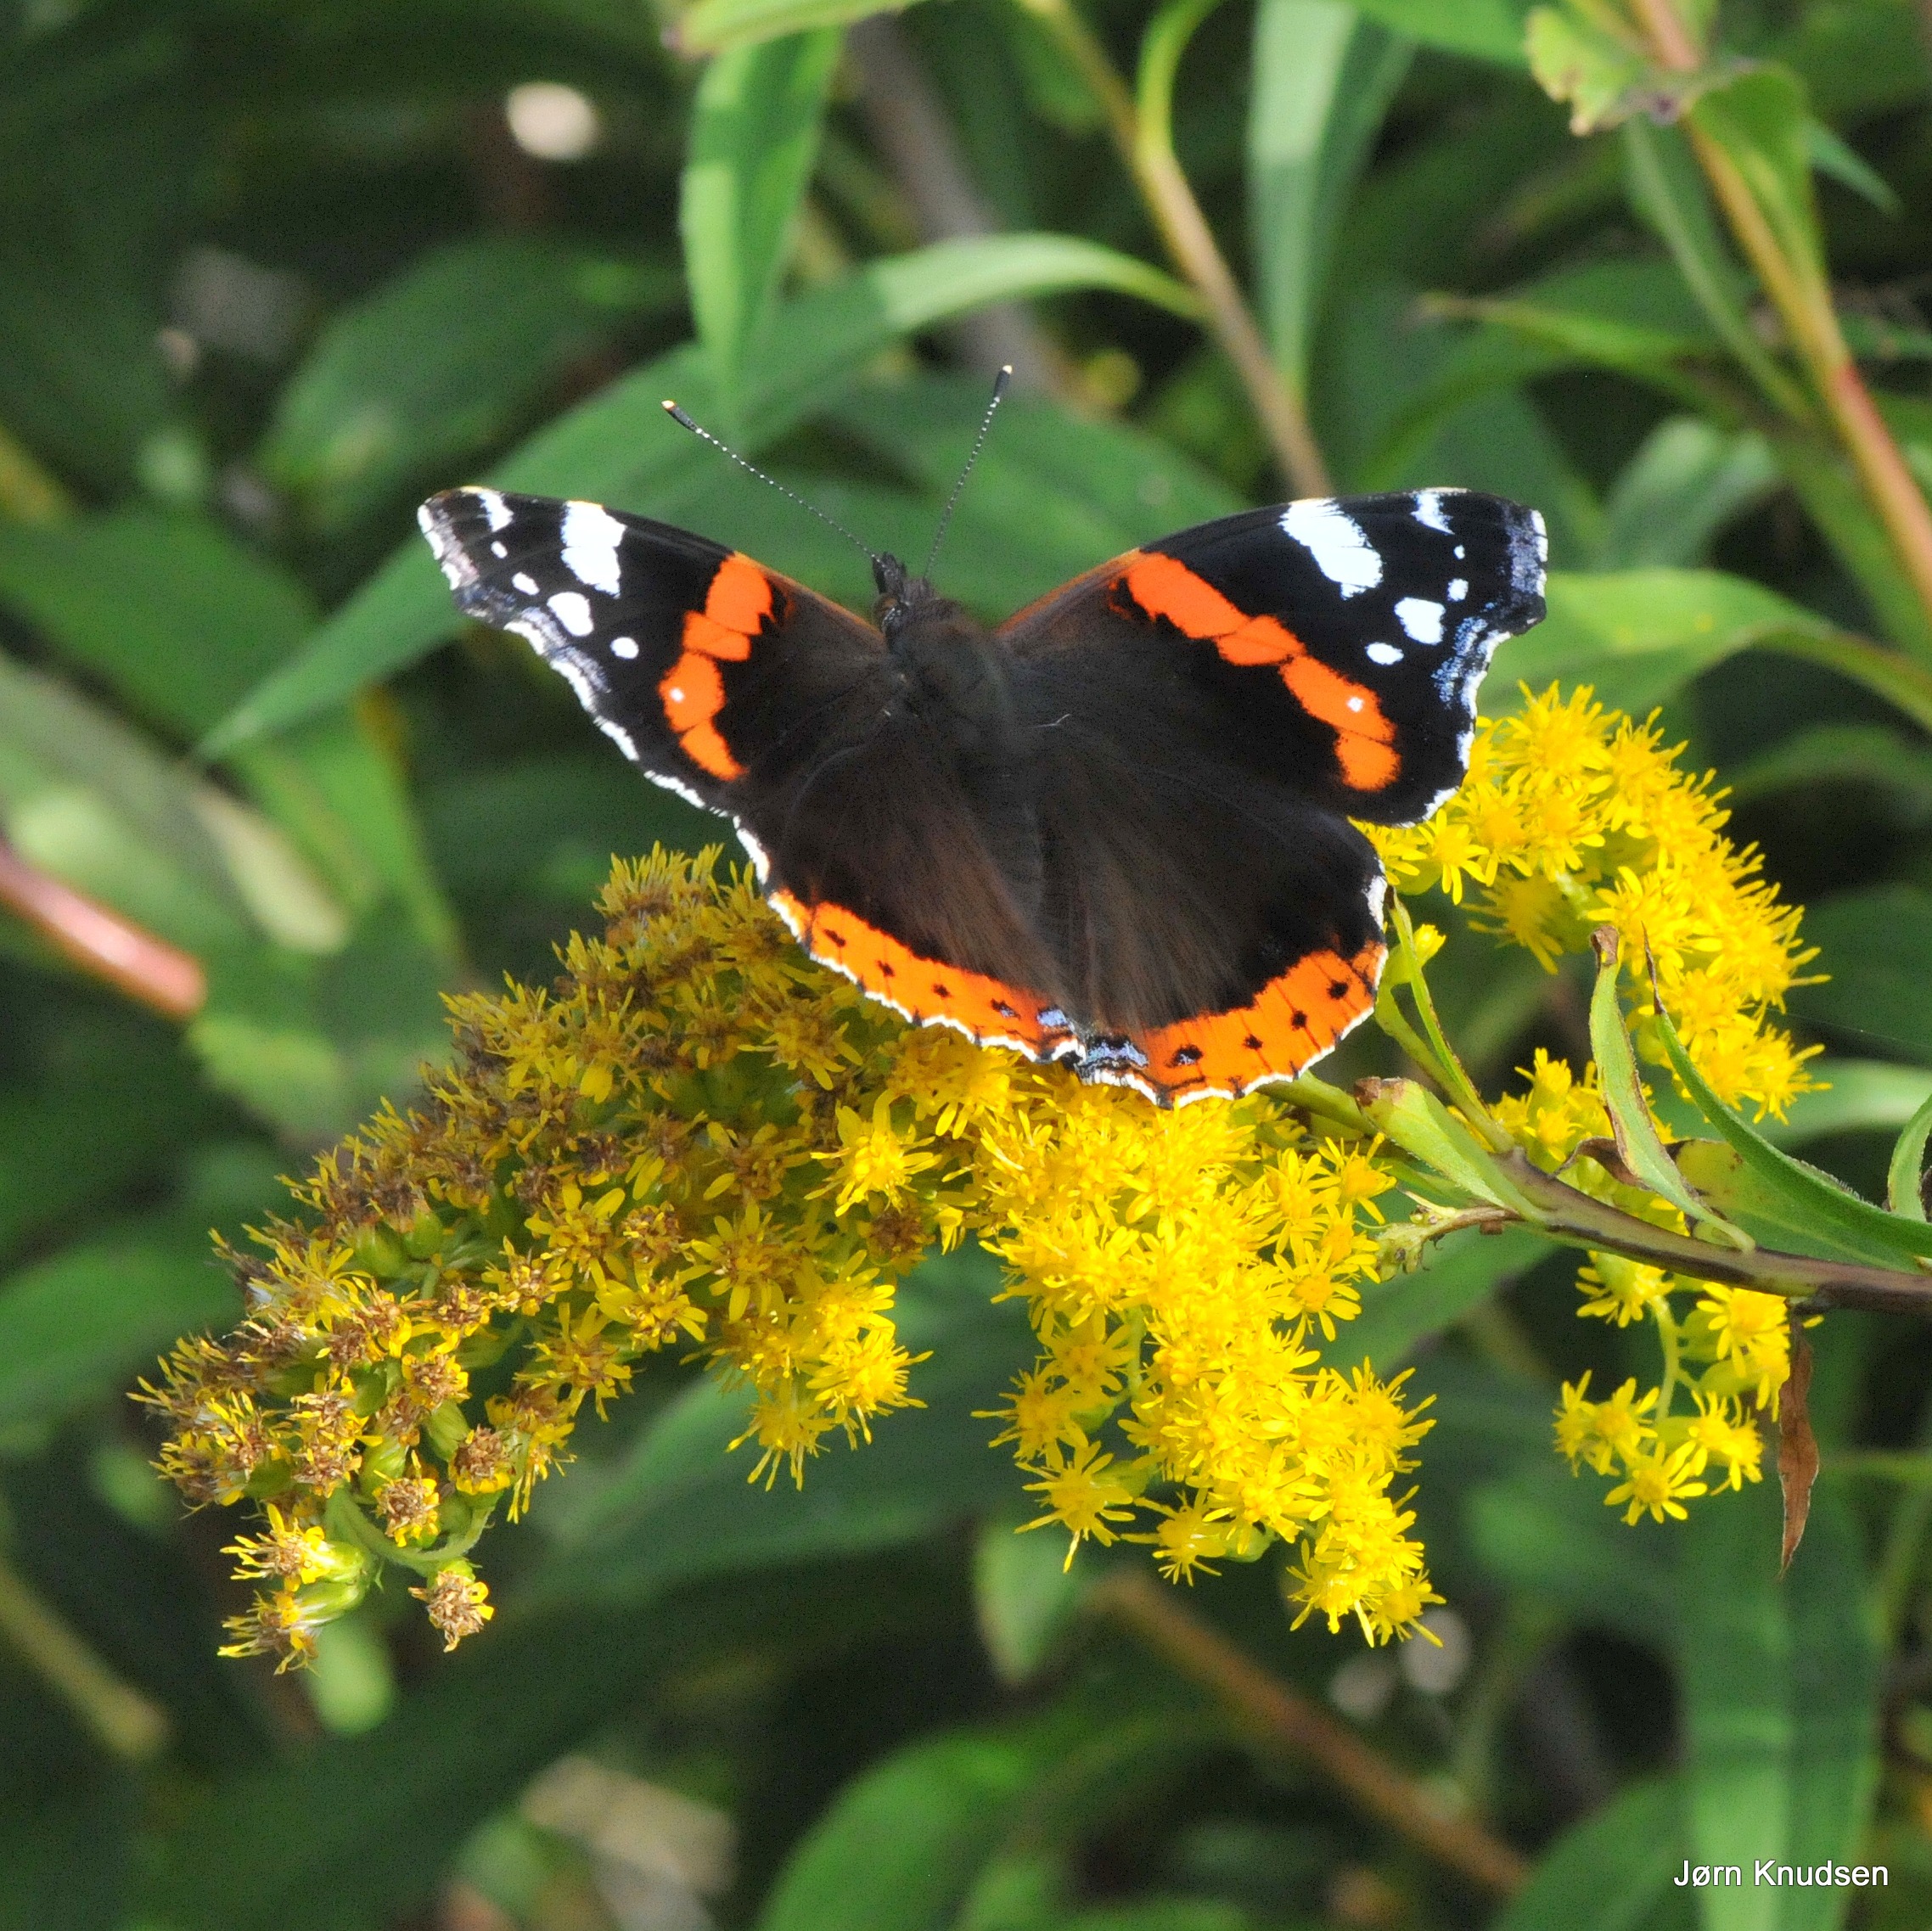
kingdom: Animalia
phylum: Arthropoda
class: Insecta
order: Lepidoptera
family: Nymphalidae
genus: Vanessa
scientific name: Vanessa atalanta
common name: Admiral
